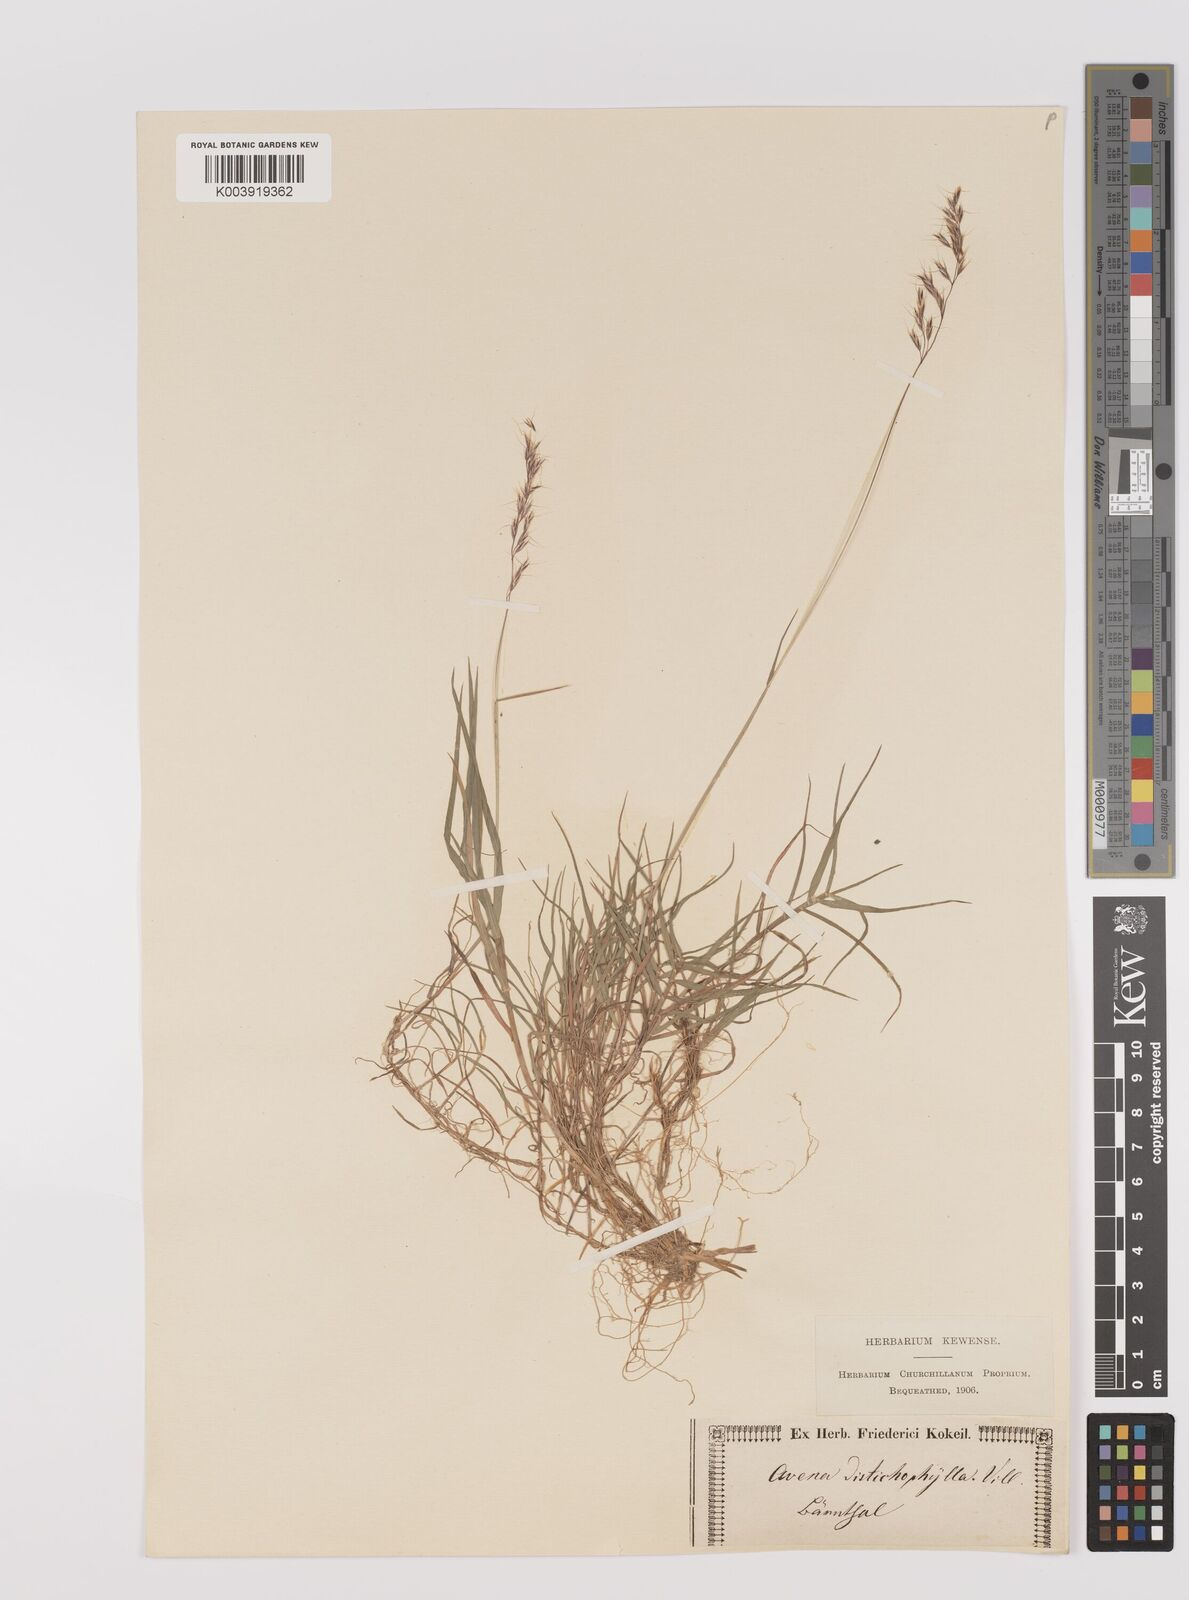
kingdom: Plantae
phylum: Tracheophyta
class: Liliopsida
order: Poales
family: Poaceae
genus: Acrospelion
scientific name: Acrospelion distichophyllum
